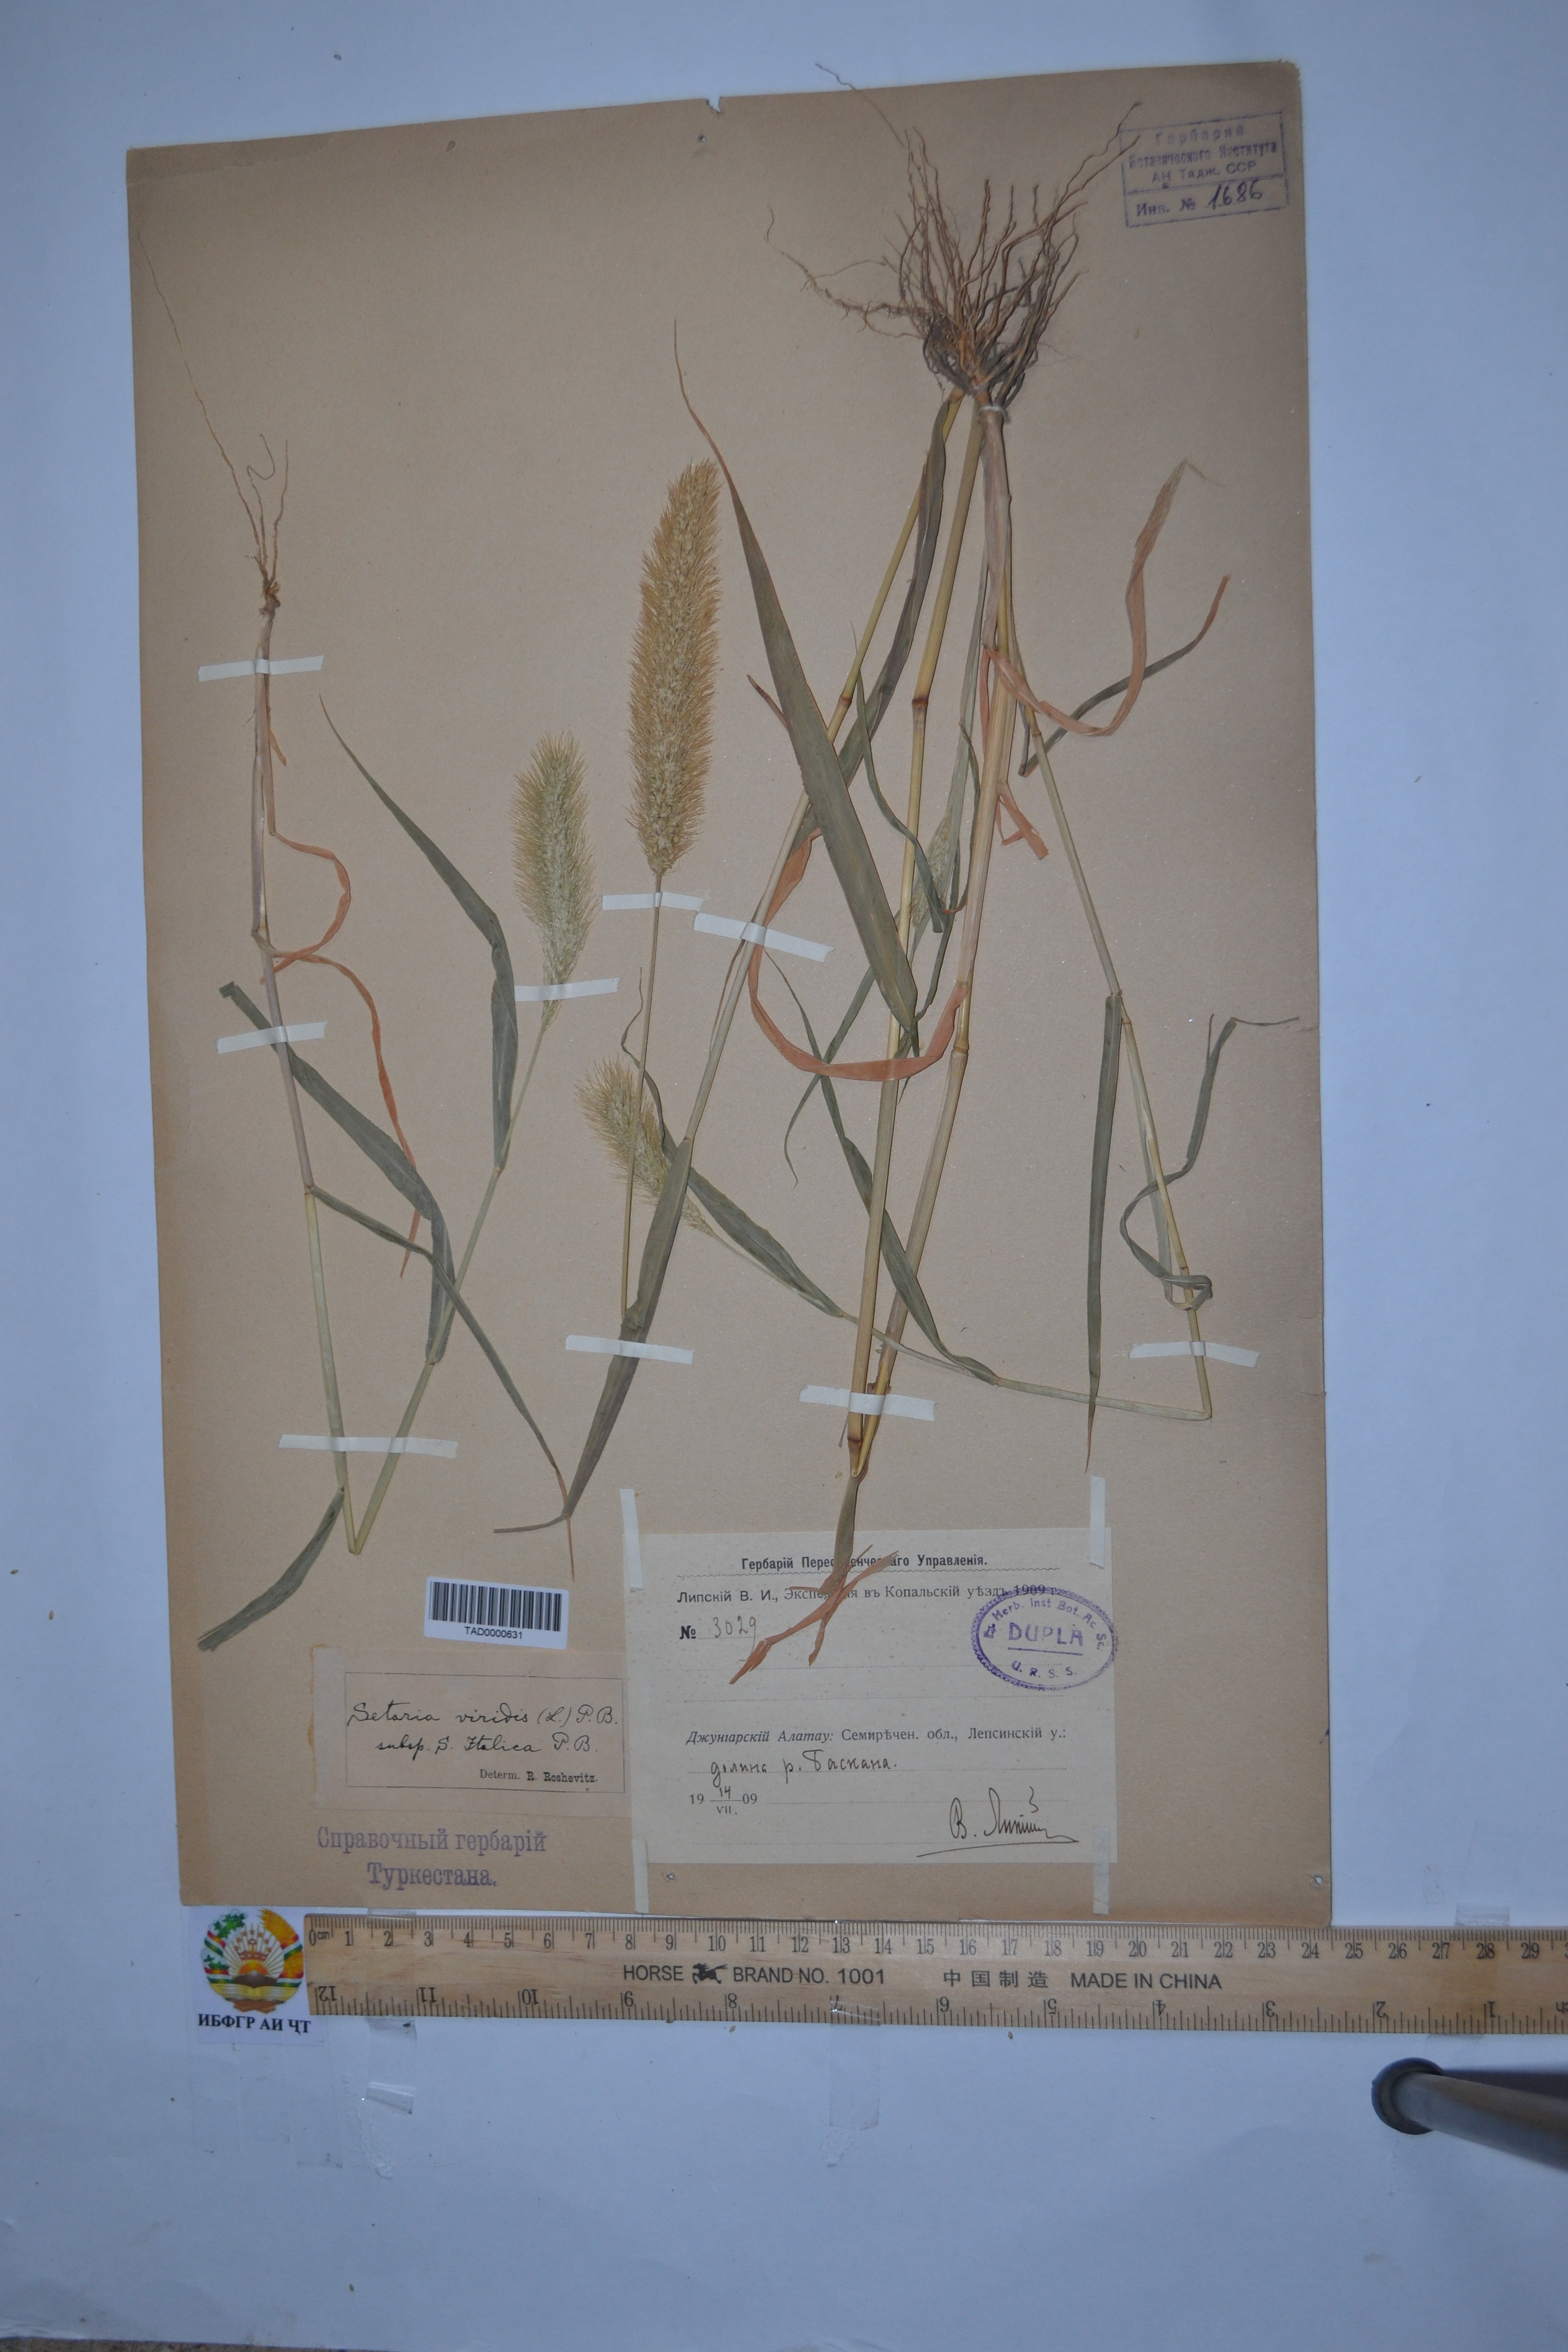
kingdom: Plantae
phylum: Tracheophyta
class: Liliopsida
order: Poales
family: Poaceae
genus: Setaria
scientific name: Setaria viridis
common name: Green bristlegrass
